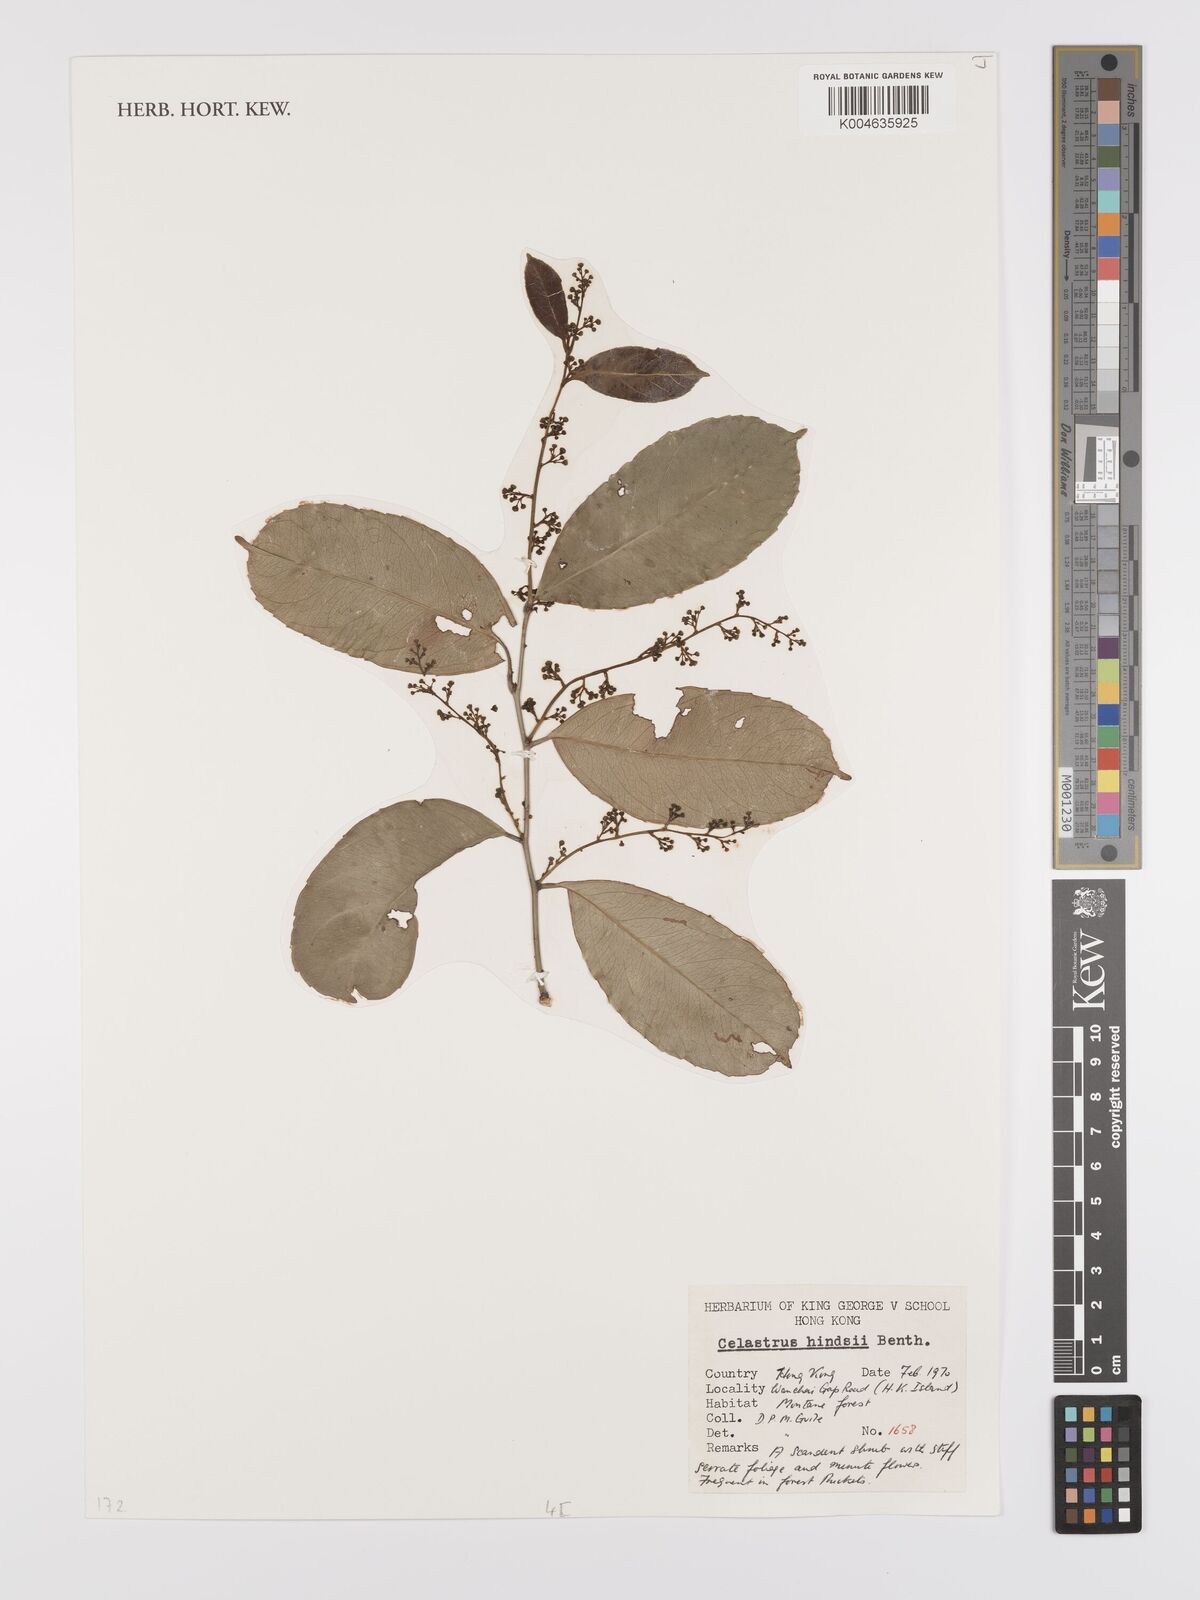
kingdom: Plantae
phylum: Tracheophyta
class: Magnoliopsida
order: Celastrales
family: Celastraceae
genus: Celastrus
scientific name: Celastrus hindsii
